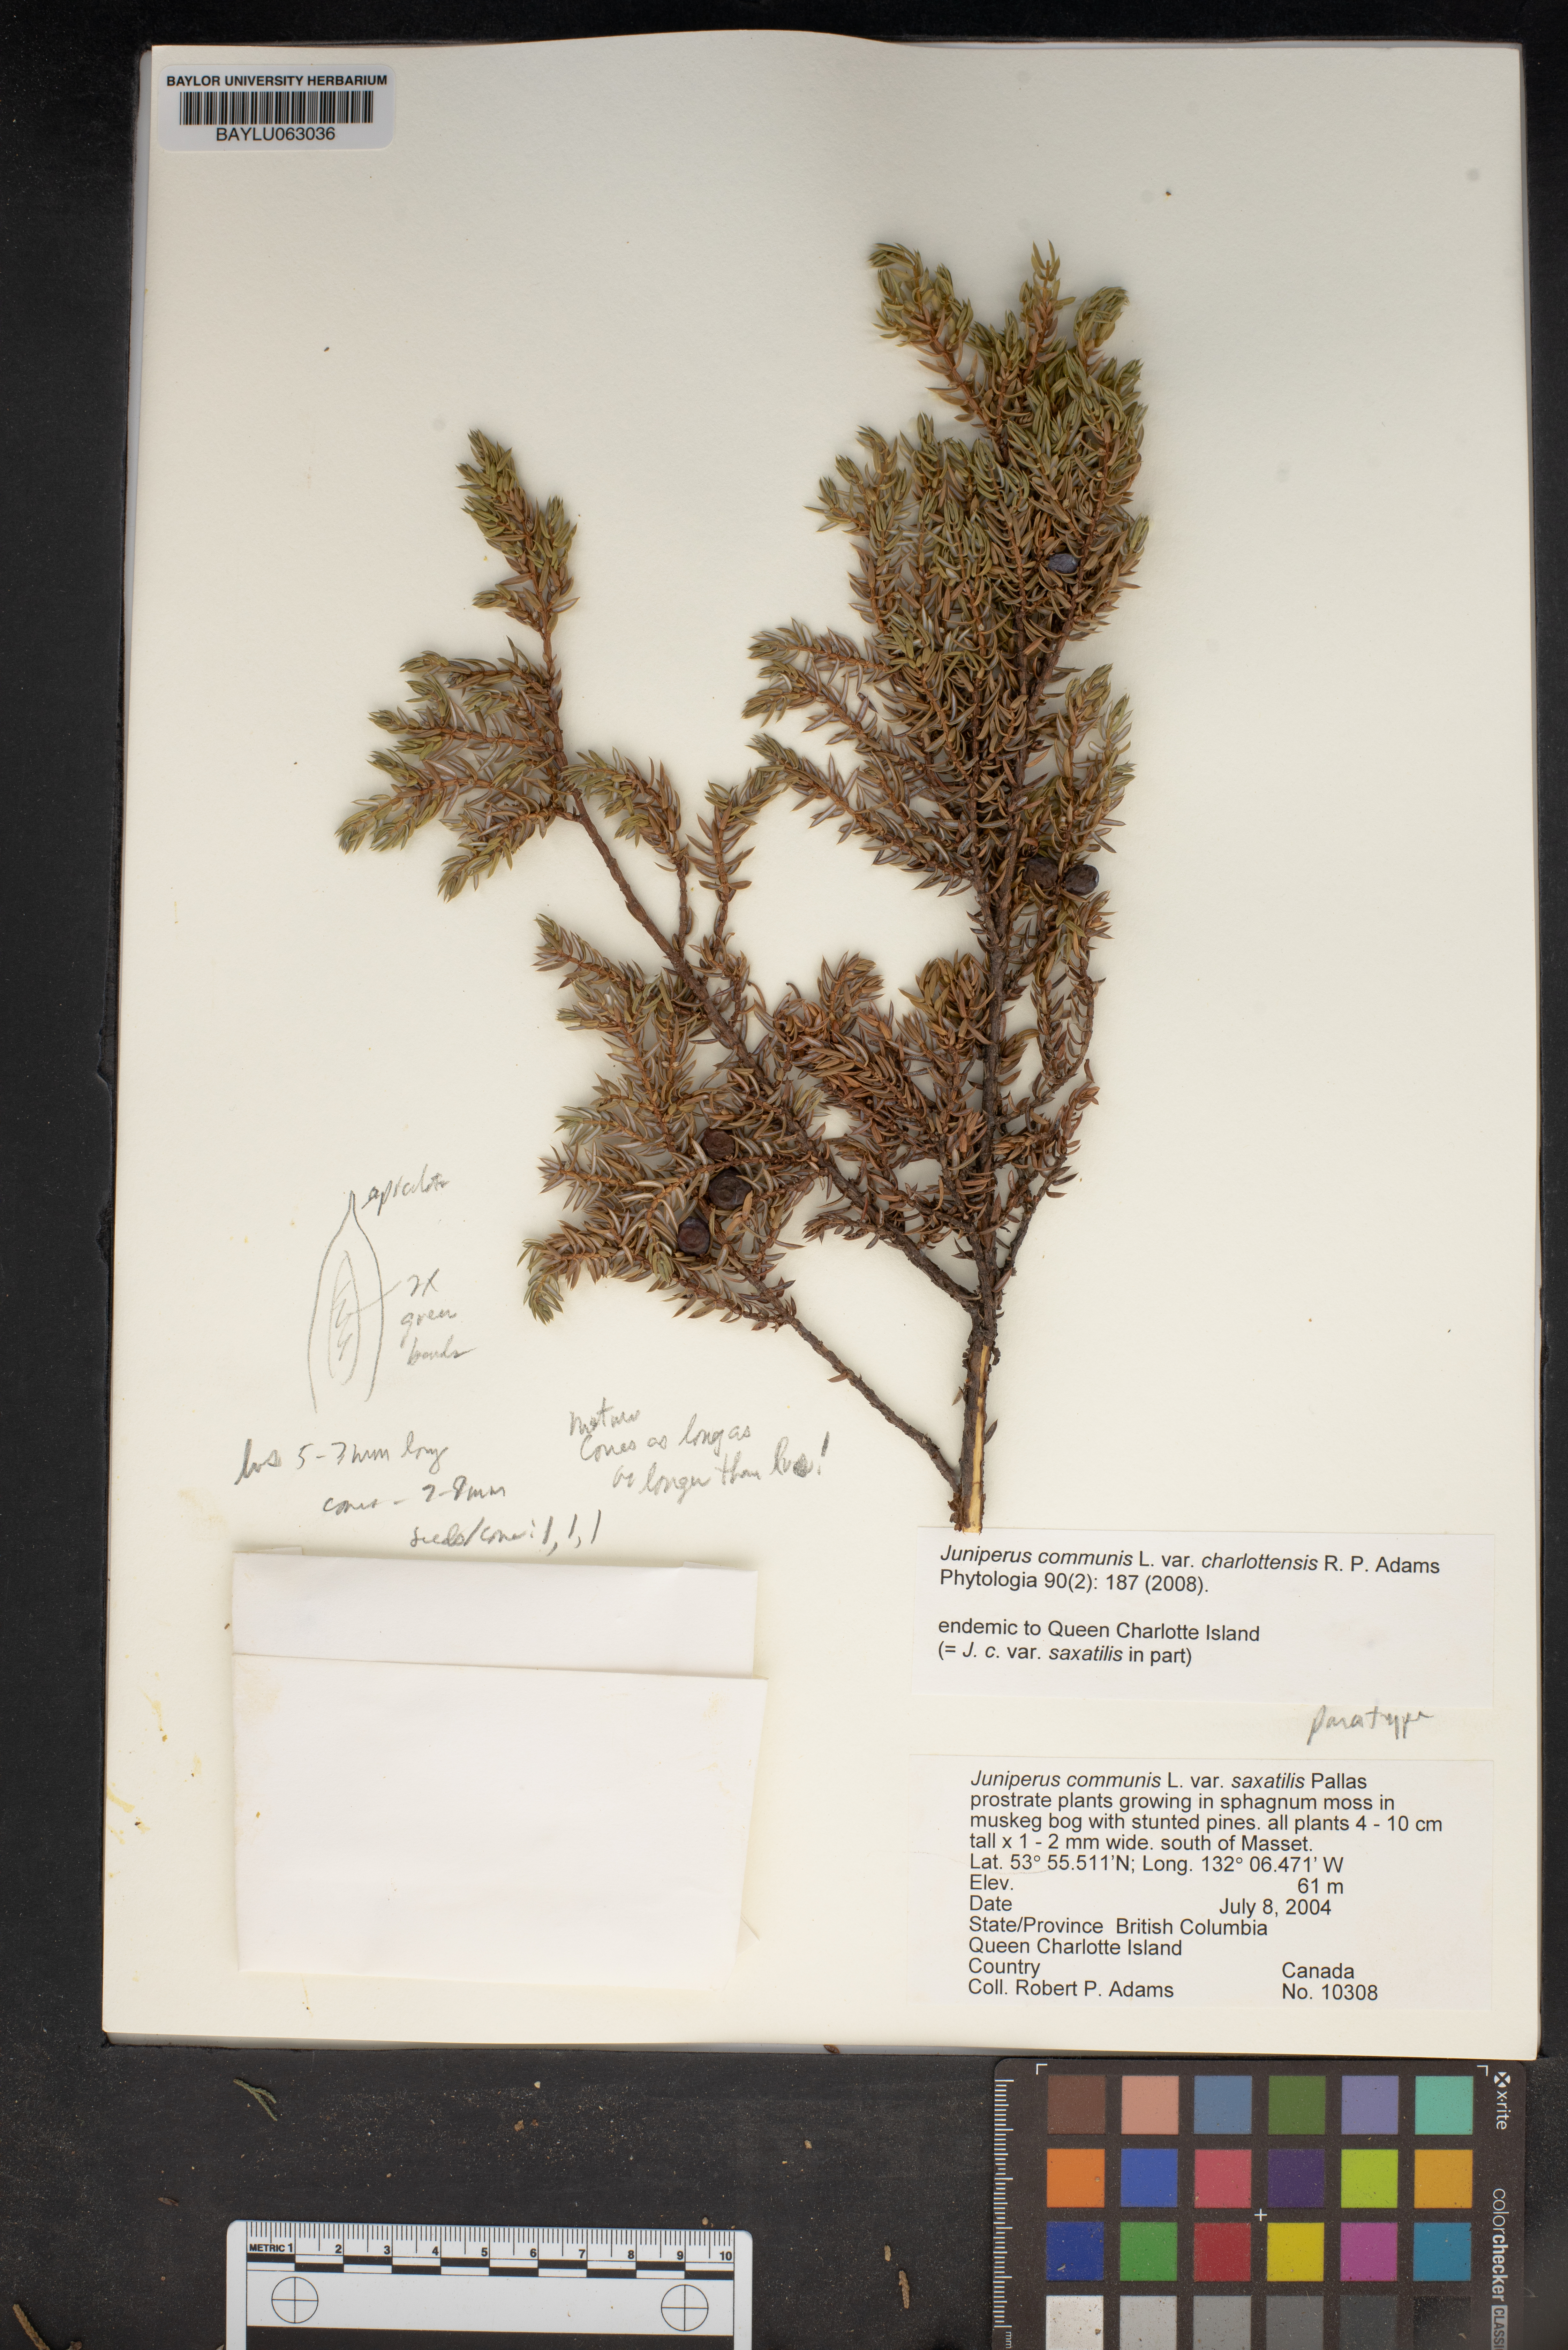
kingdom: Plantae
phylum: Tracheophyta
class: Pinopsida
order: Pinales
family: Cupressaceae
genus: Juniperus
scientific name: Juniperus communis
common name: Common juniper
